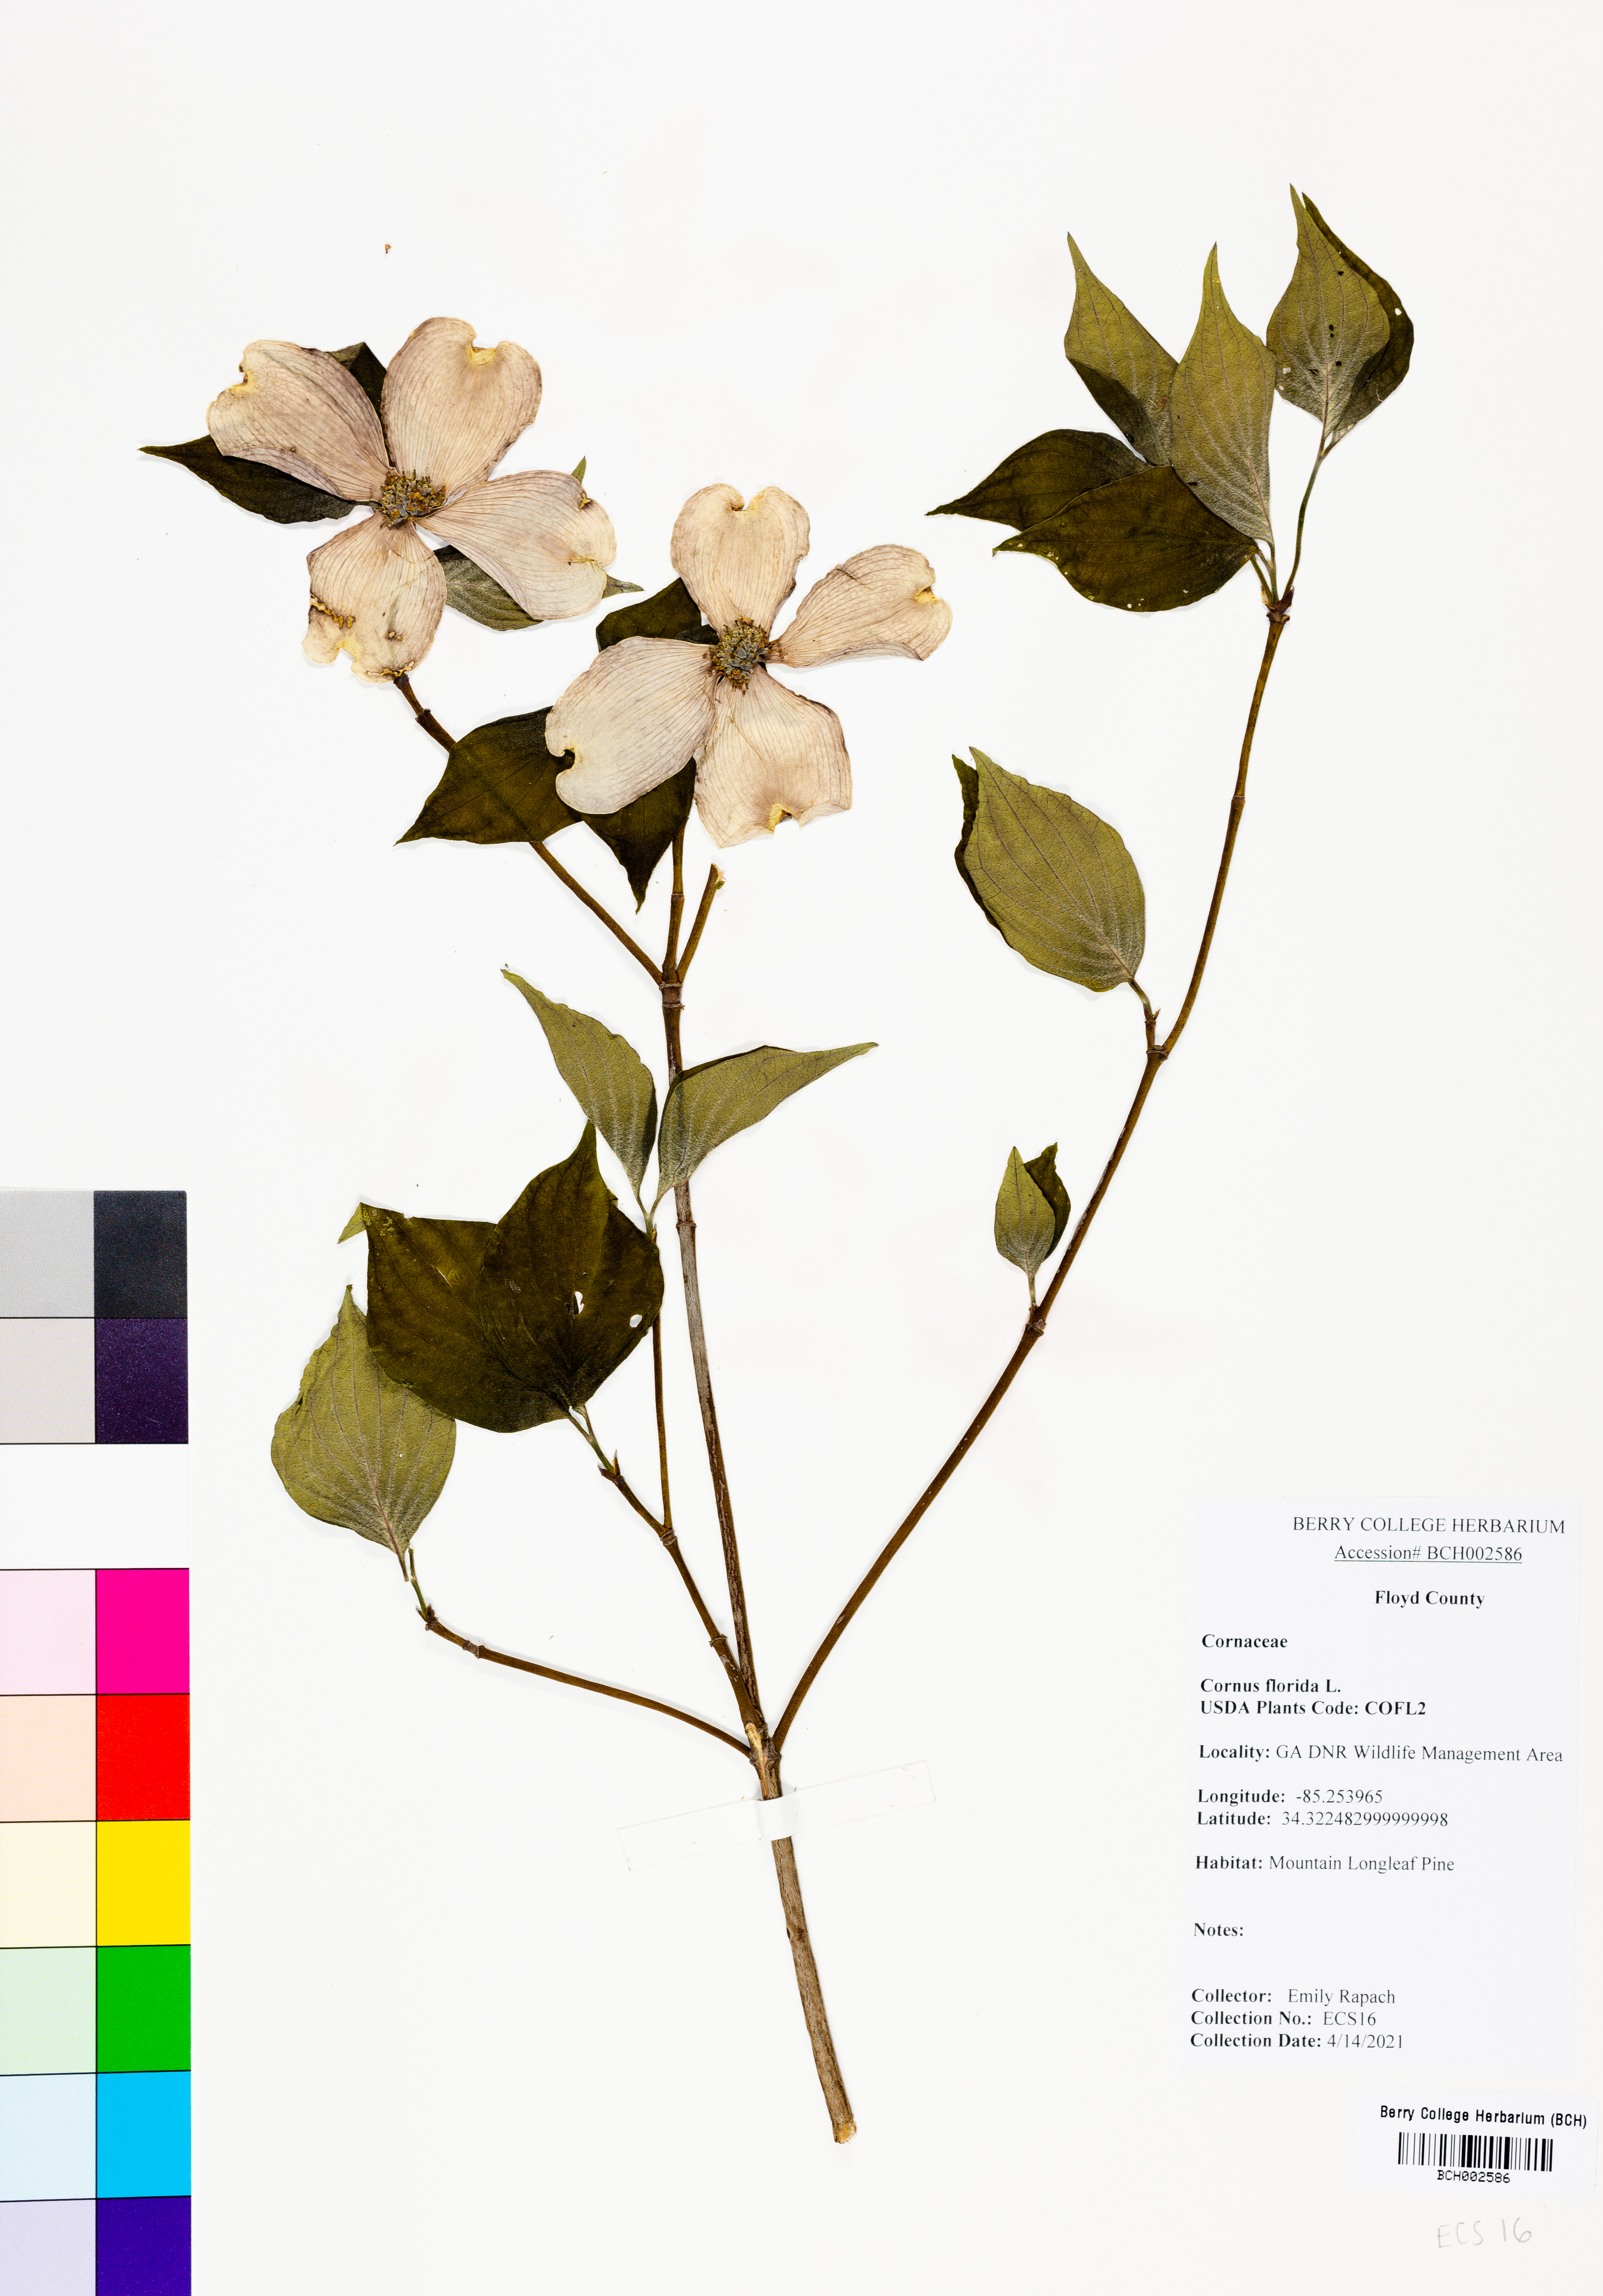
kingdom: Plantae
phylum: Tracheophyta
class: Magnoliopsida
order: Cornales
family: Cornaceae
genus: Cornus
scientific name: Cornus florida
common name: Flowering dogwood
